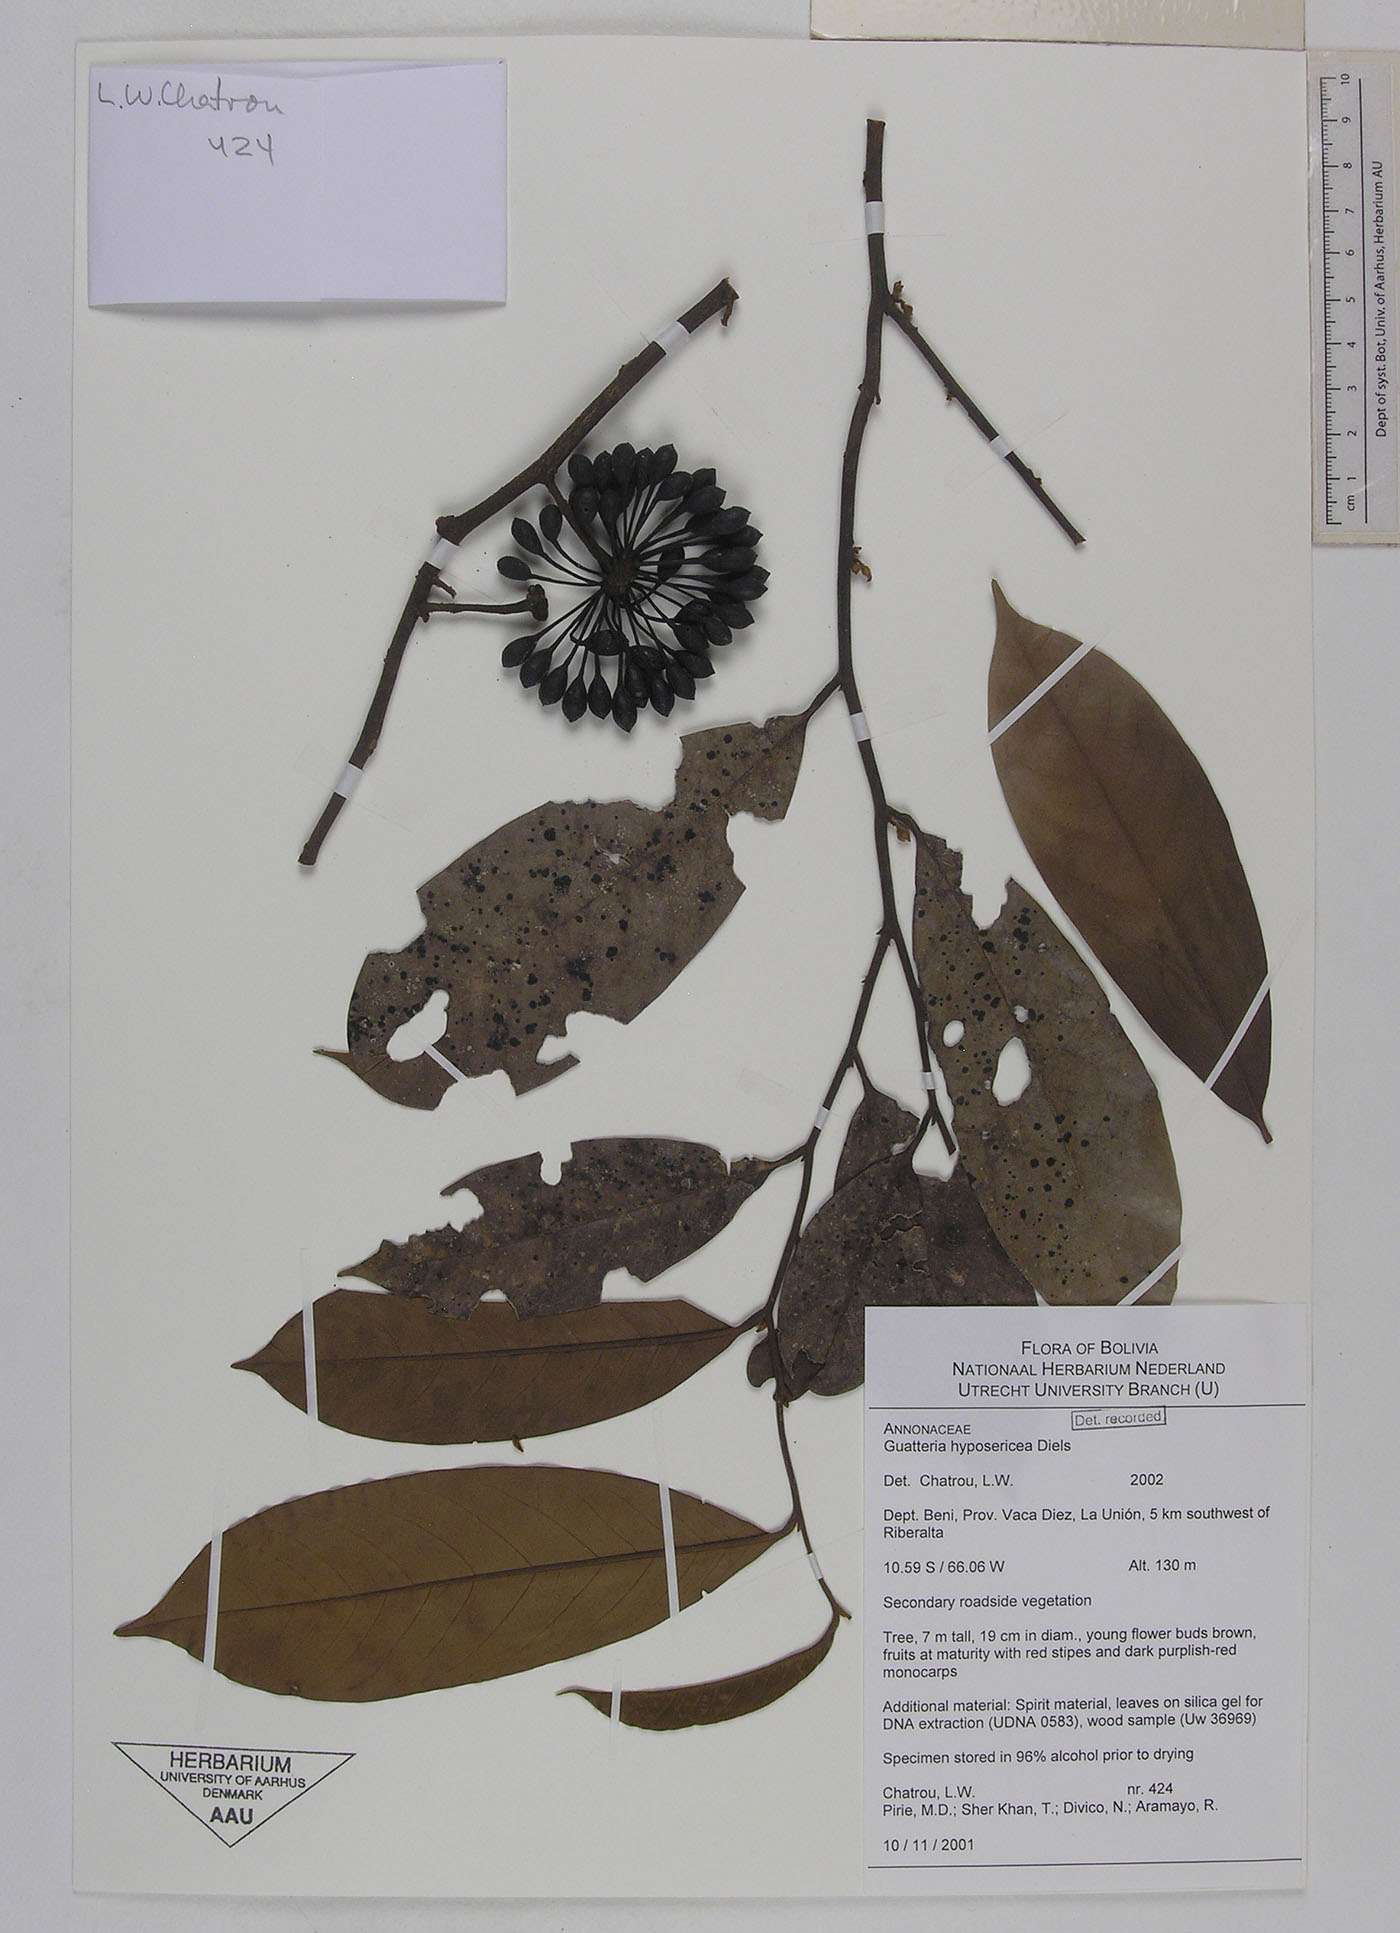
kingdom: Plantae
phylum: Tracheophyta
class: Magnoliopsida
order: Magnoliales
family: Annonaceae
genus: Guatteria
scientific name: Guatteria scytophylla
